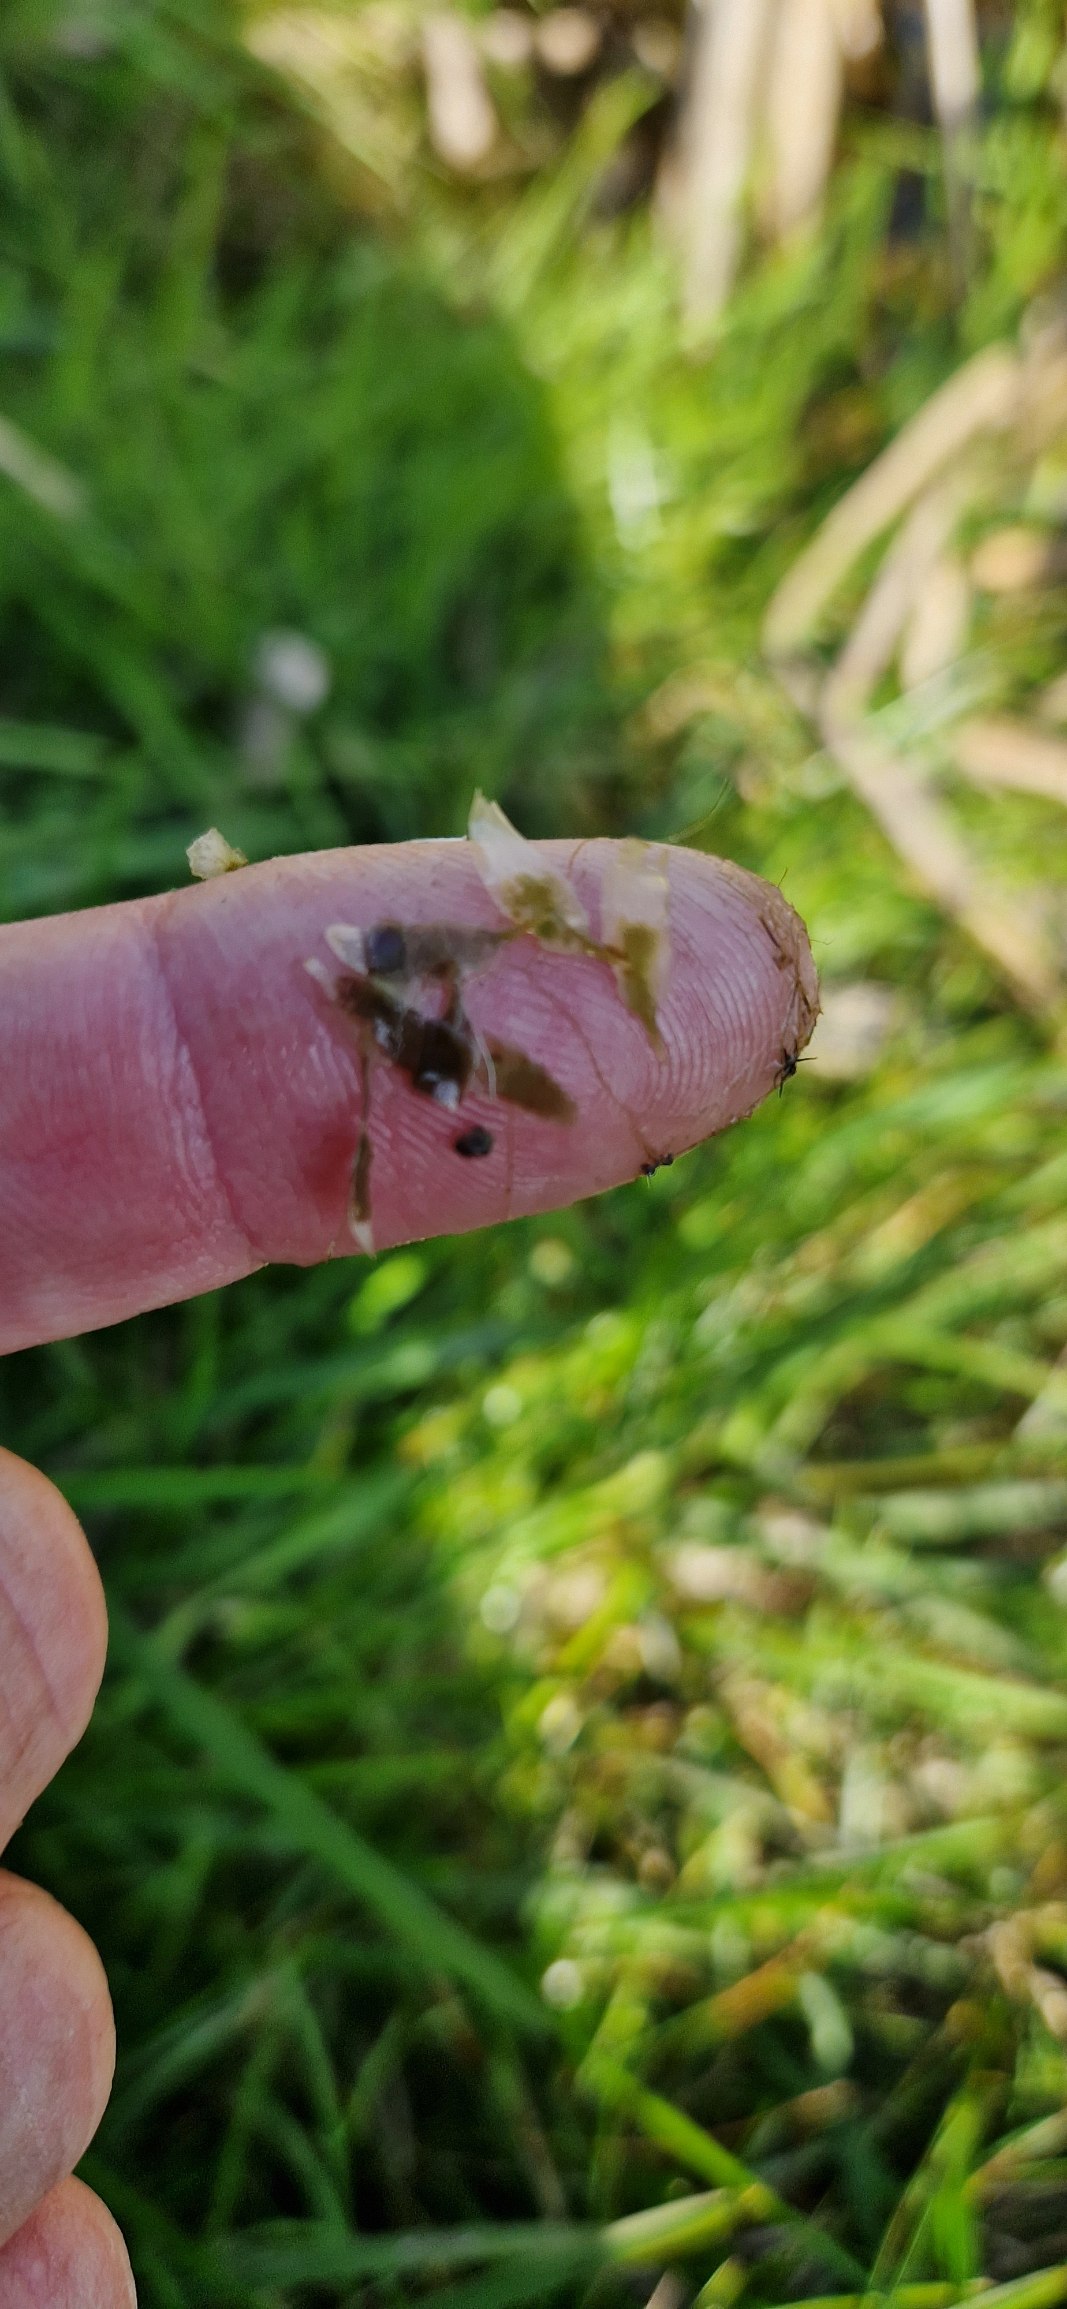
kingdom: Plantae
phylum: Tracheophyta
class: Liliopsida
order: Alismatales
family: Araceae
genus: Lemna
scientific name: Lemna trisulca
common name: Kors-andemad
